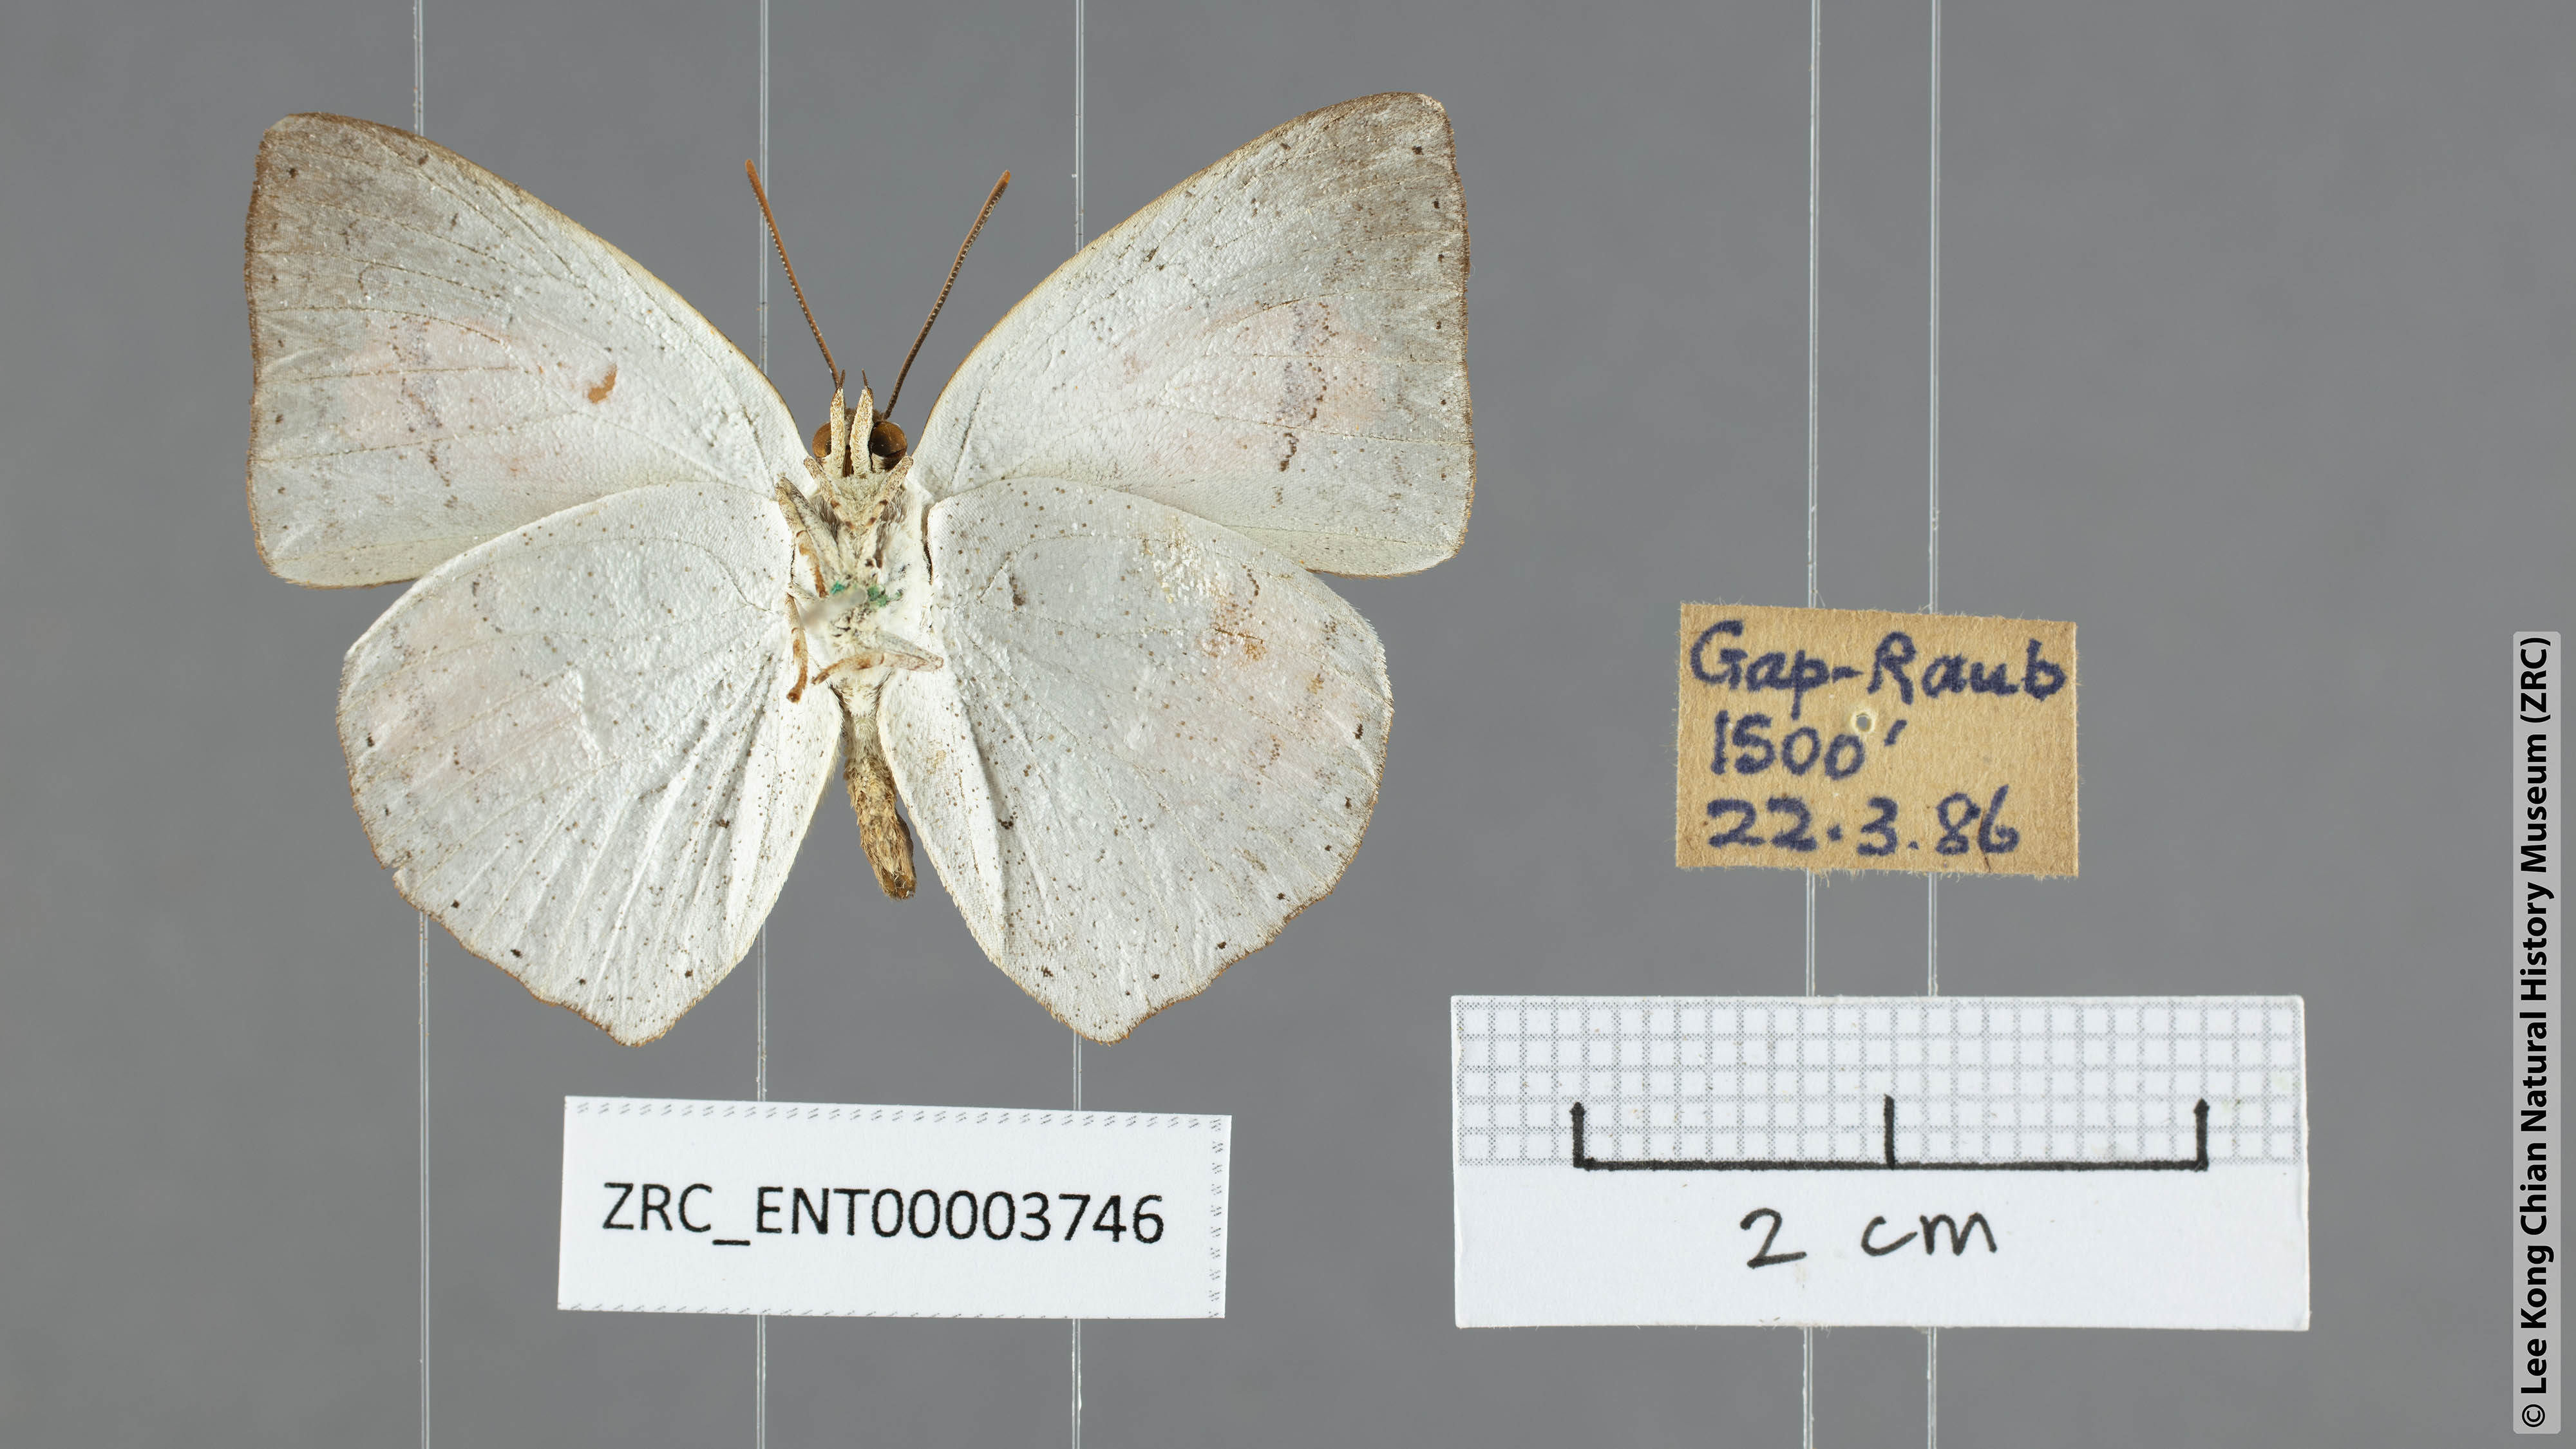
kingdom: Animalia
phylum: Arthropoda
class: Insecta
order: Lepidoptera
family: Lycaenidae
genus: Curetis
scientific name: Curetis santana
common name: Malayan sunbeam
